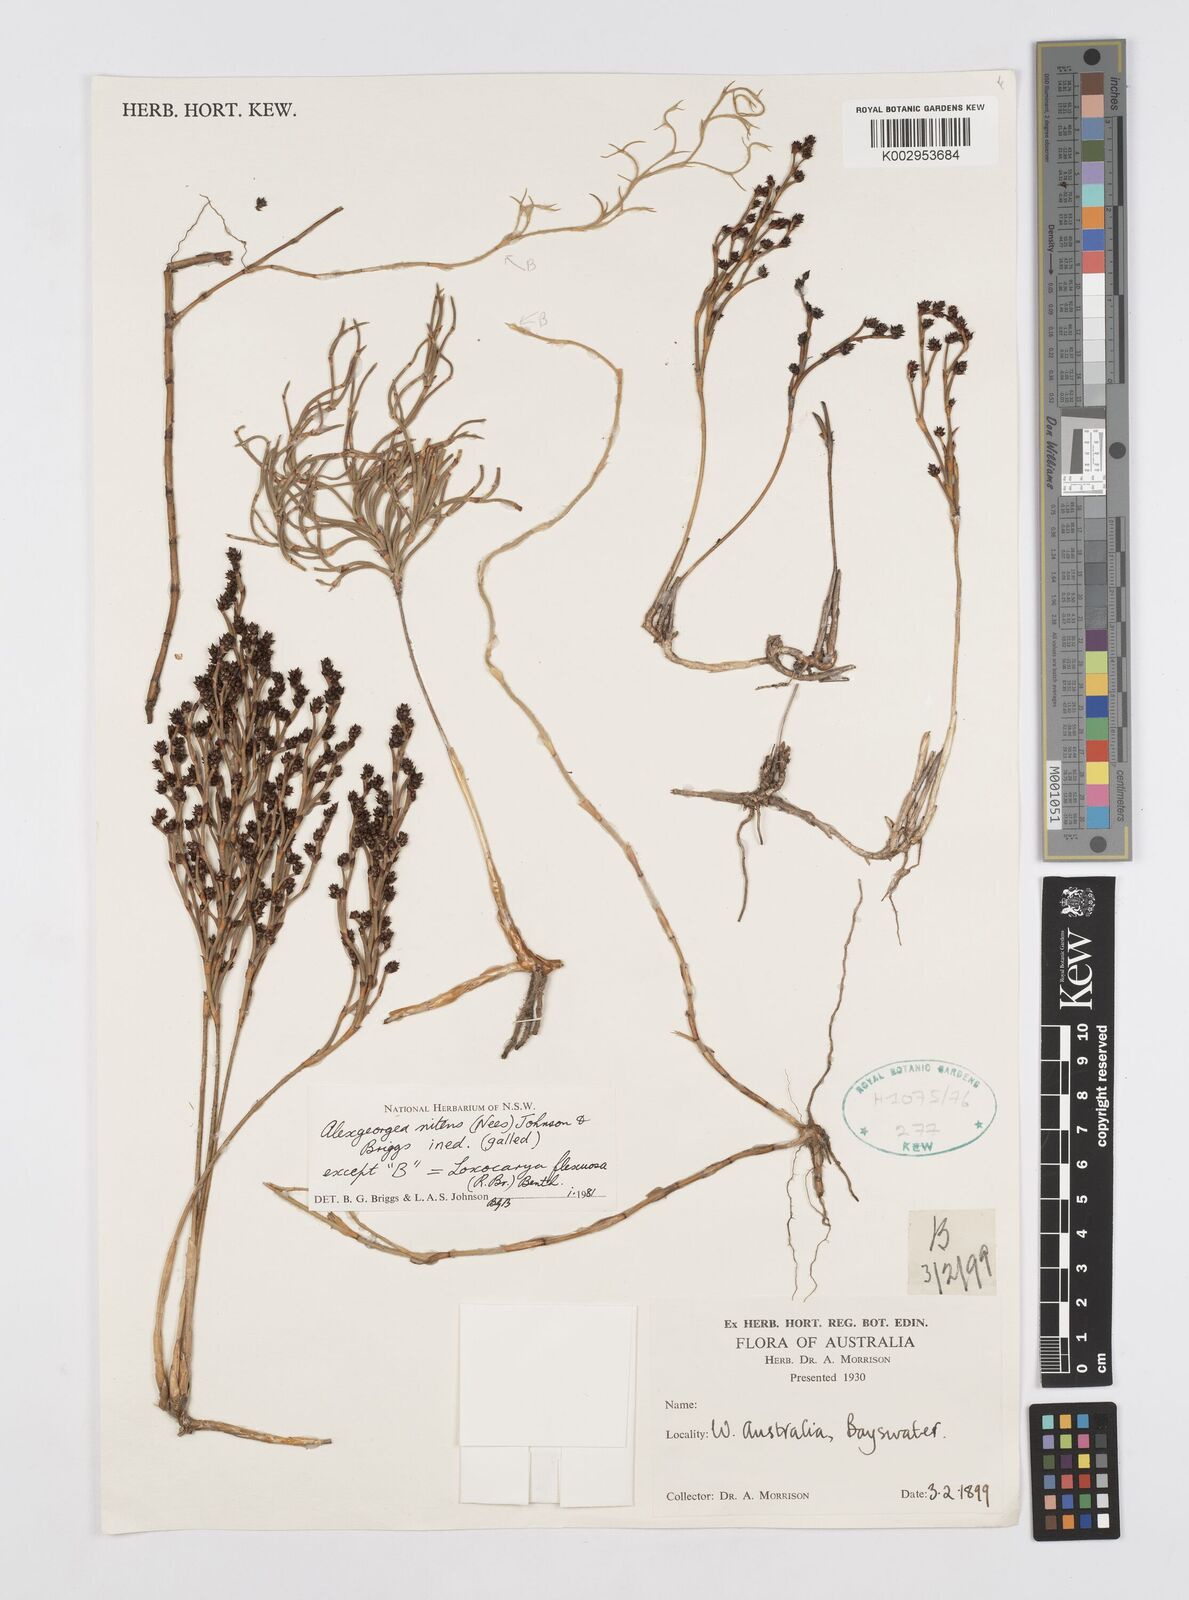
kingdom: Plantae
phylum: Tracheophyta
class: Liliopsida
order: Poales
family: Restionaceae
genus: Alexgeorgea
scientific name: Alexgeorgea nitens
